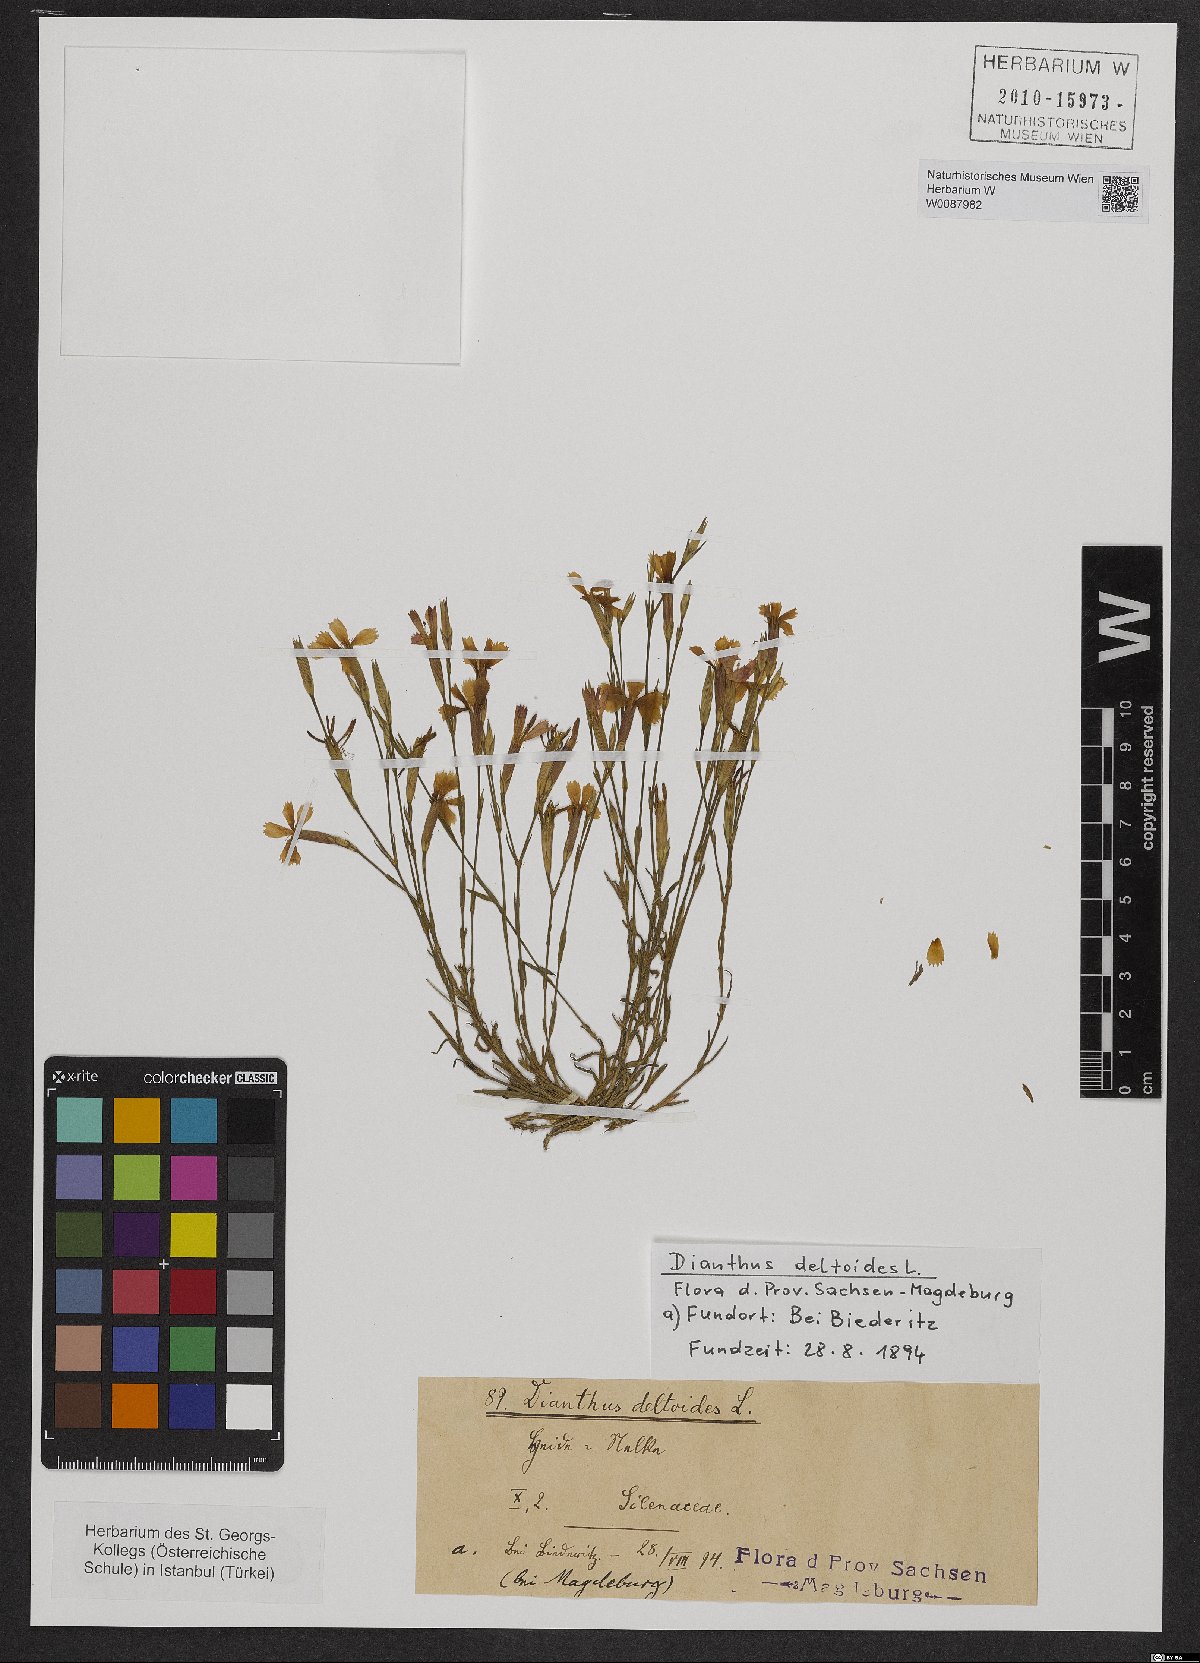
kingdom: Plantae
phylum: Tracheophyta
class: Magnoliopsida
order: Caryophyllales
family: Caryophyllaceae
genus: Dianthus
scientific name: Dianthus deltoides
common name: Maiden pink
